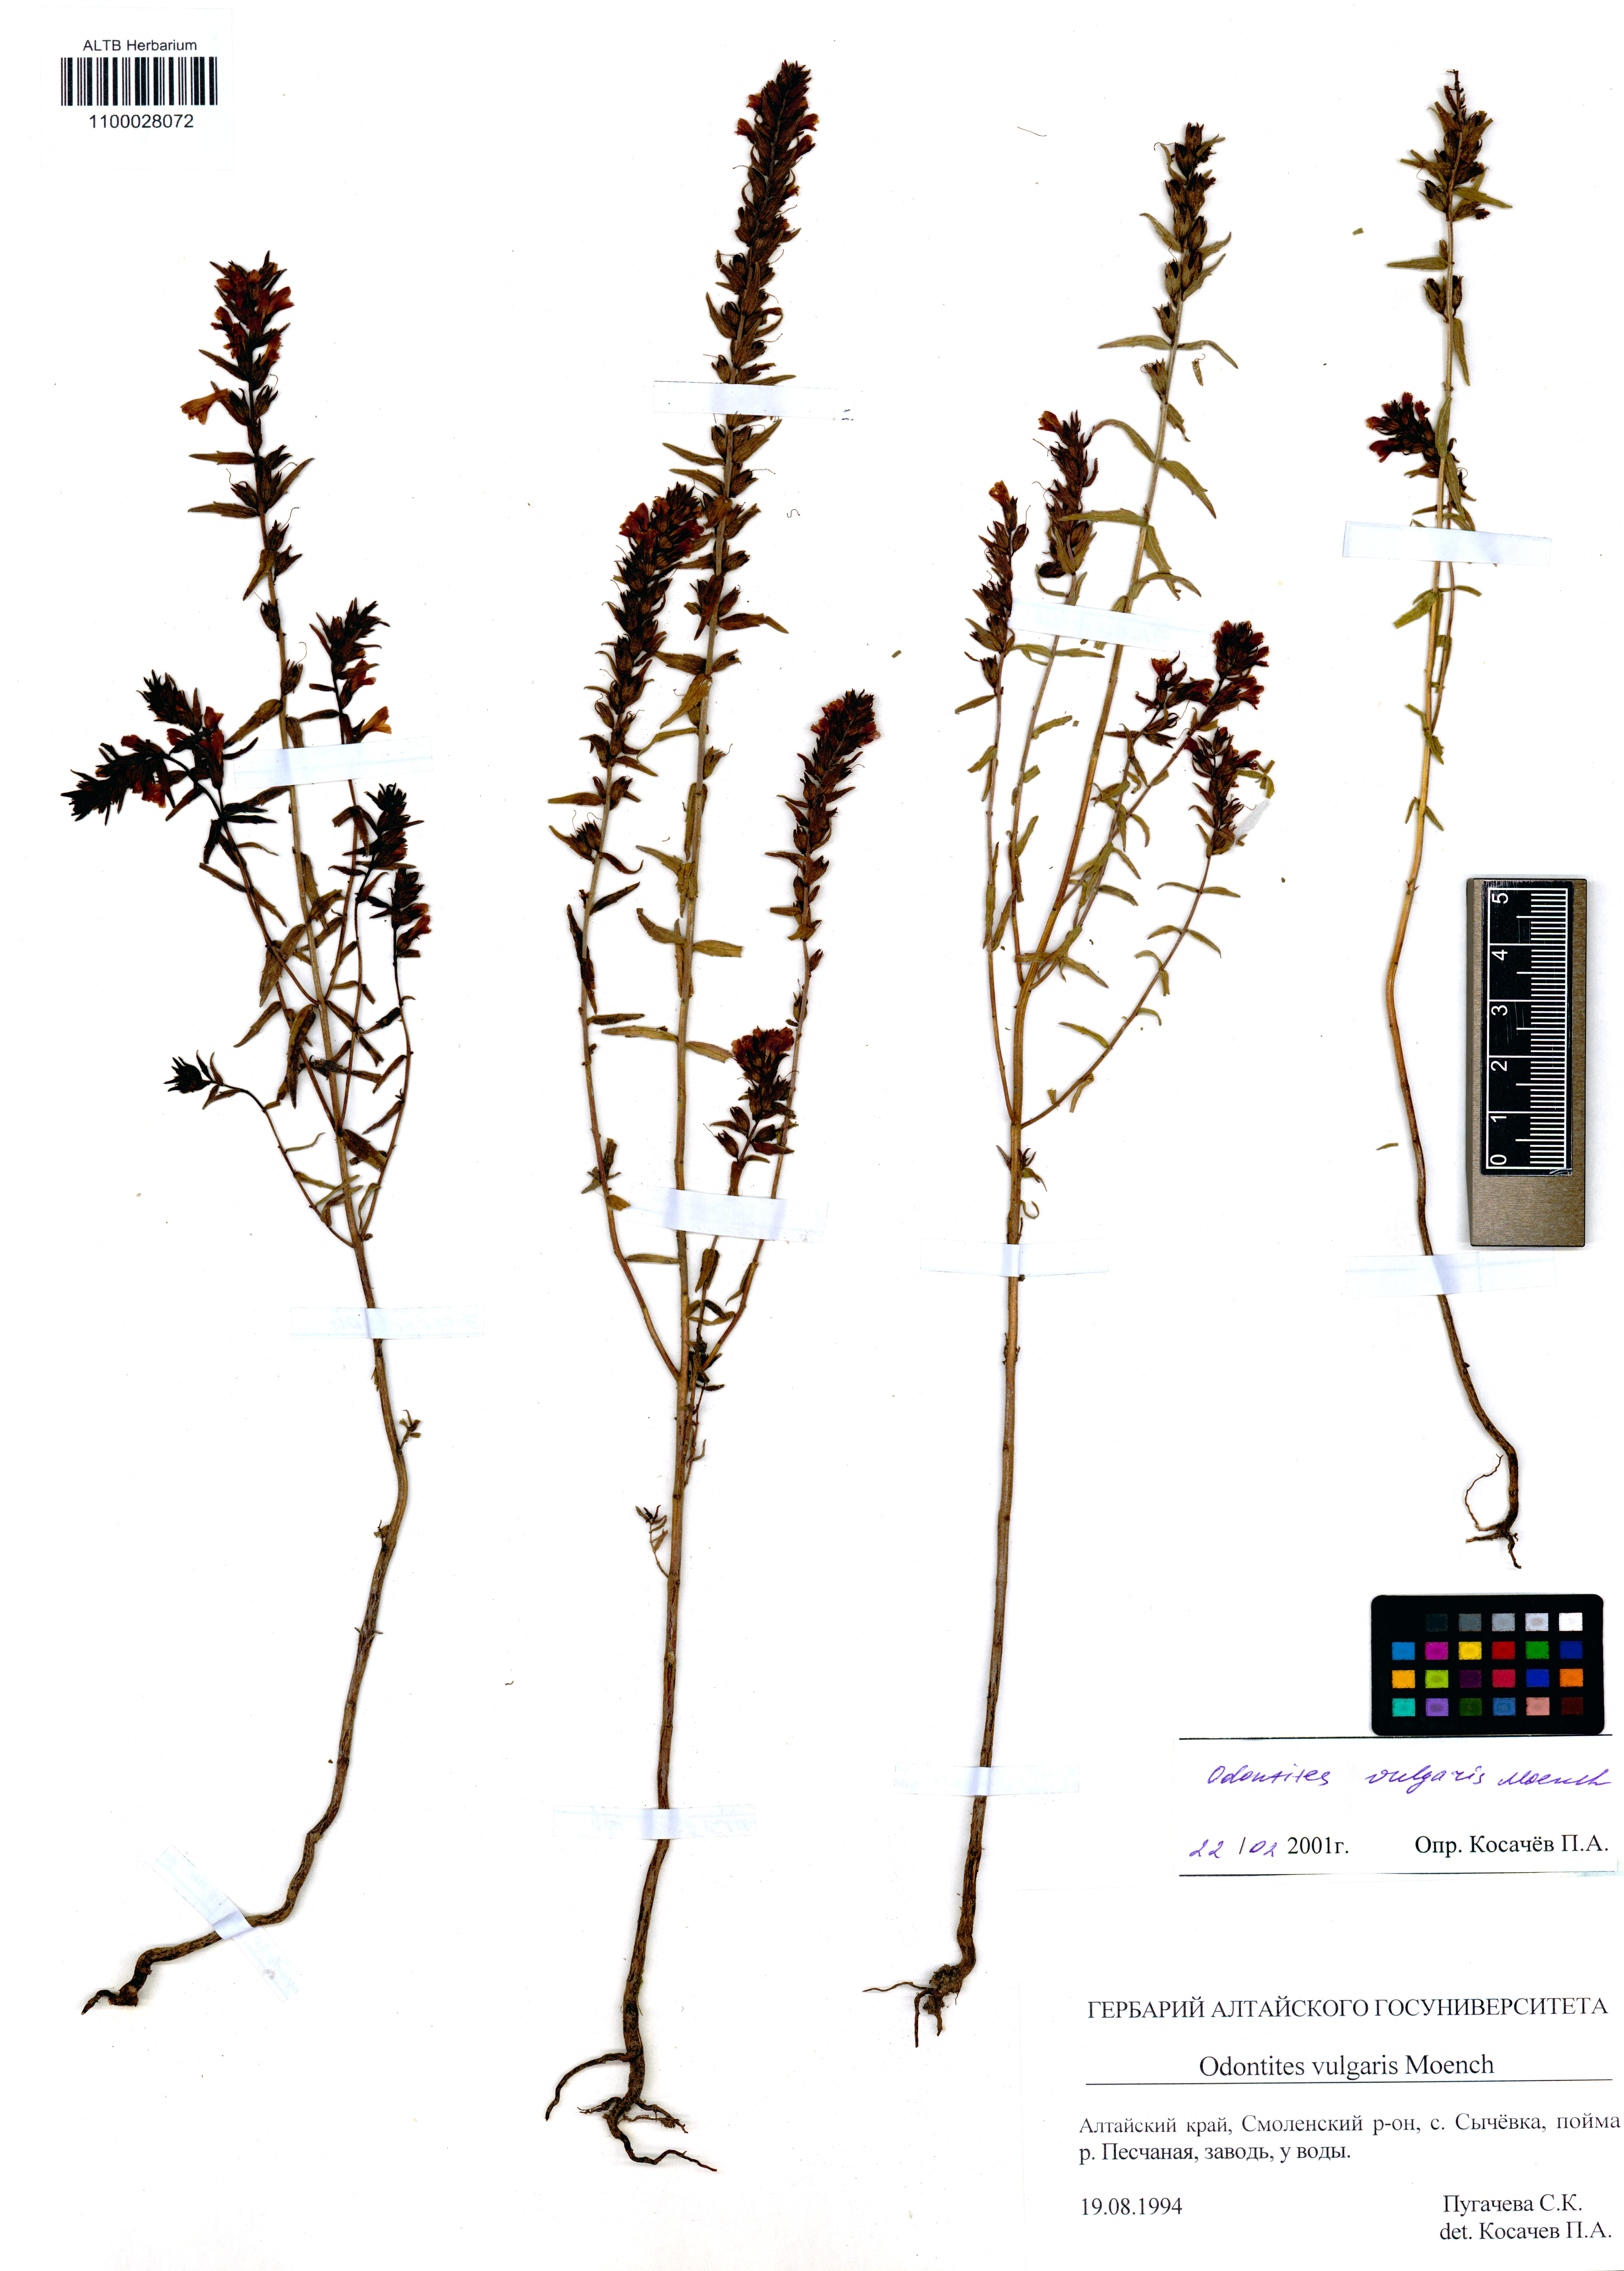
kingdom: Plantae
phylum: Tracheophyta
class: Magnoliopsida
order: Lamiales
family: Orobanchaceae
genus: Odontites
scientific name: Odontites vulgaris
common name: Broomrape
